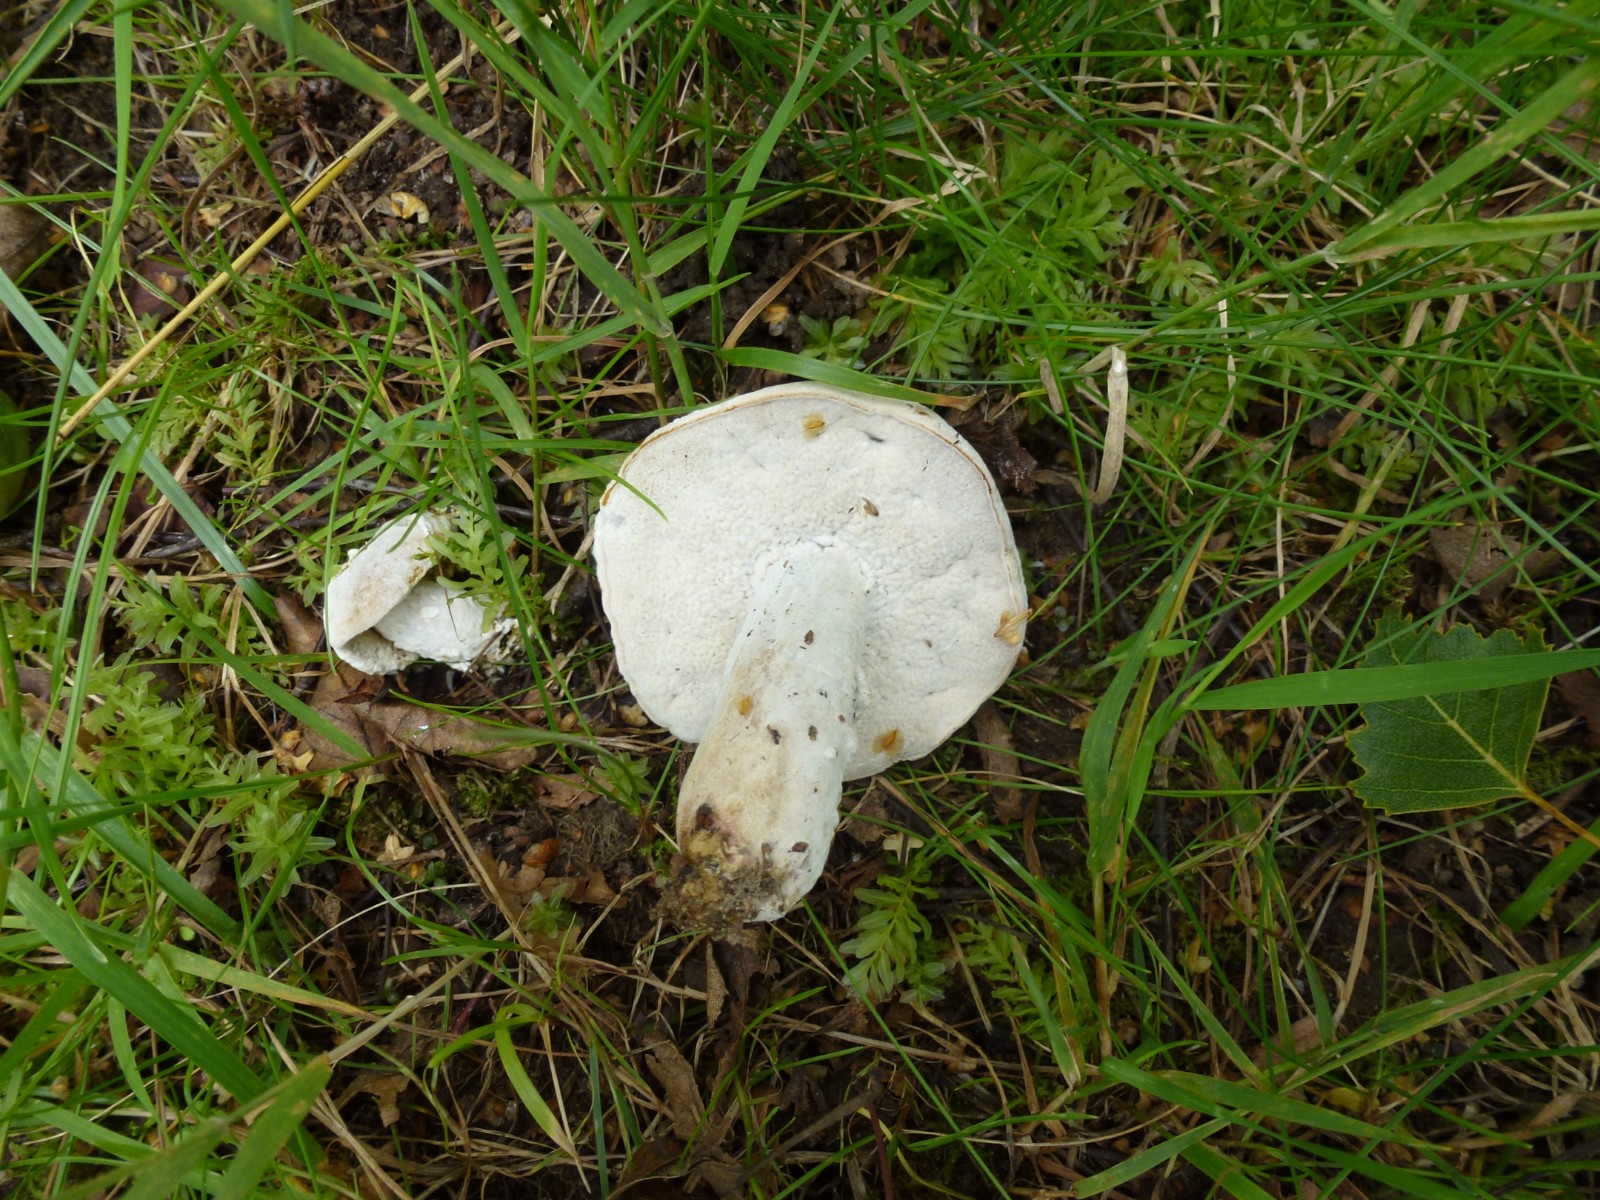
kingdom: Fungi
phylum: Ascomycota
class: Sordariomycetes
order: Hypocreales
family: Hypocreaceae
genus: Hypomyces
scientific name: Hypomyces
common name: snylteskorpe
